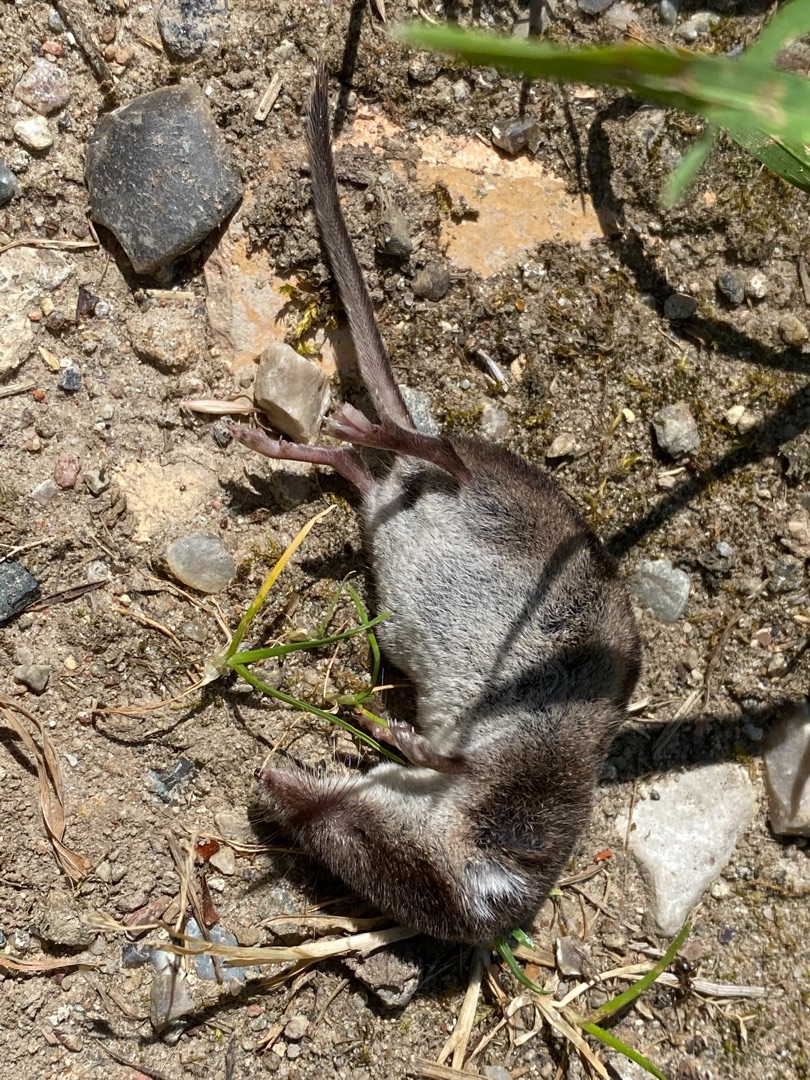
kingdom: Animalia
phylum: Chordata
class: Mammalia
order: Soricomorpha
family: Soricidae
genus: Sorex
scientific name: Sorex araneus
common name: Almindelig spidsmus
